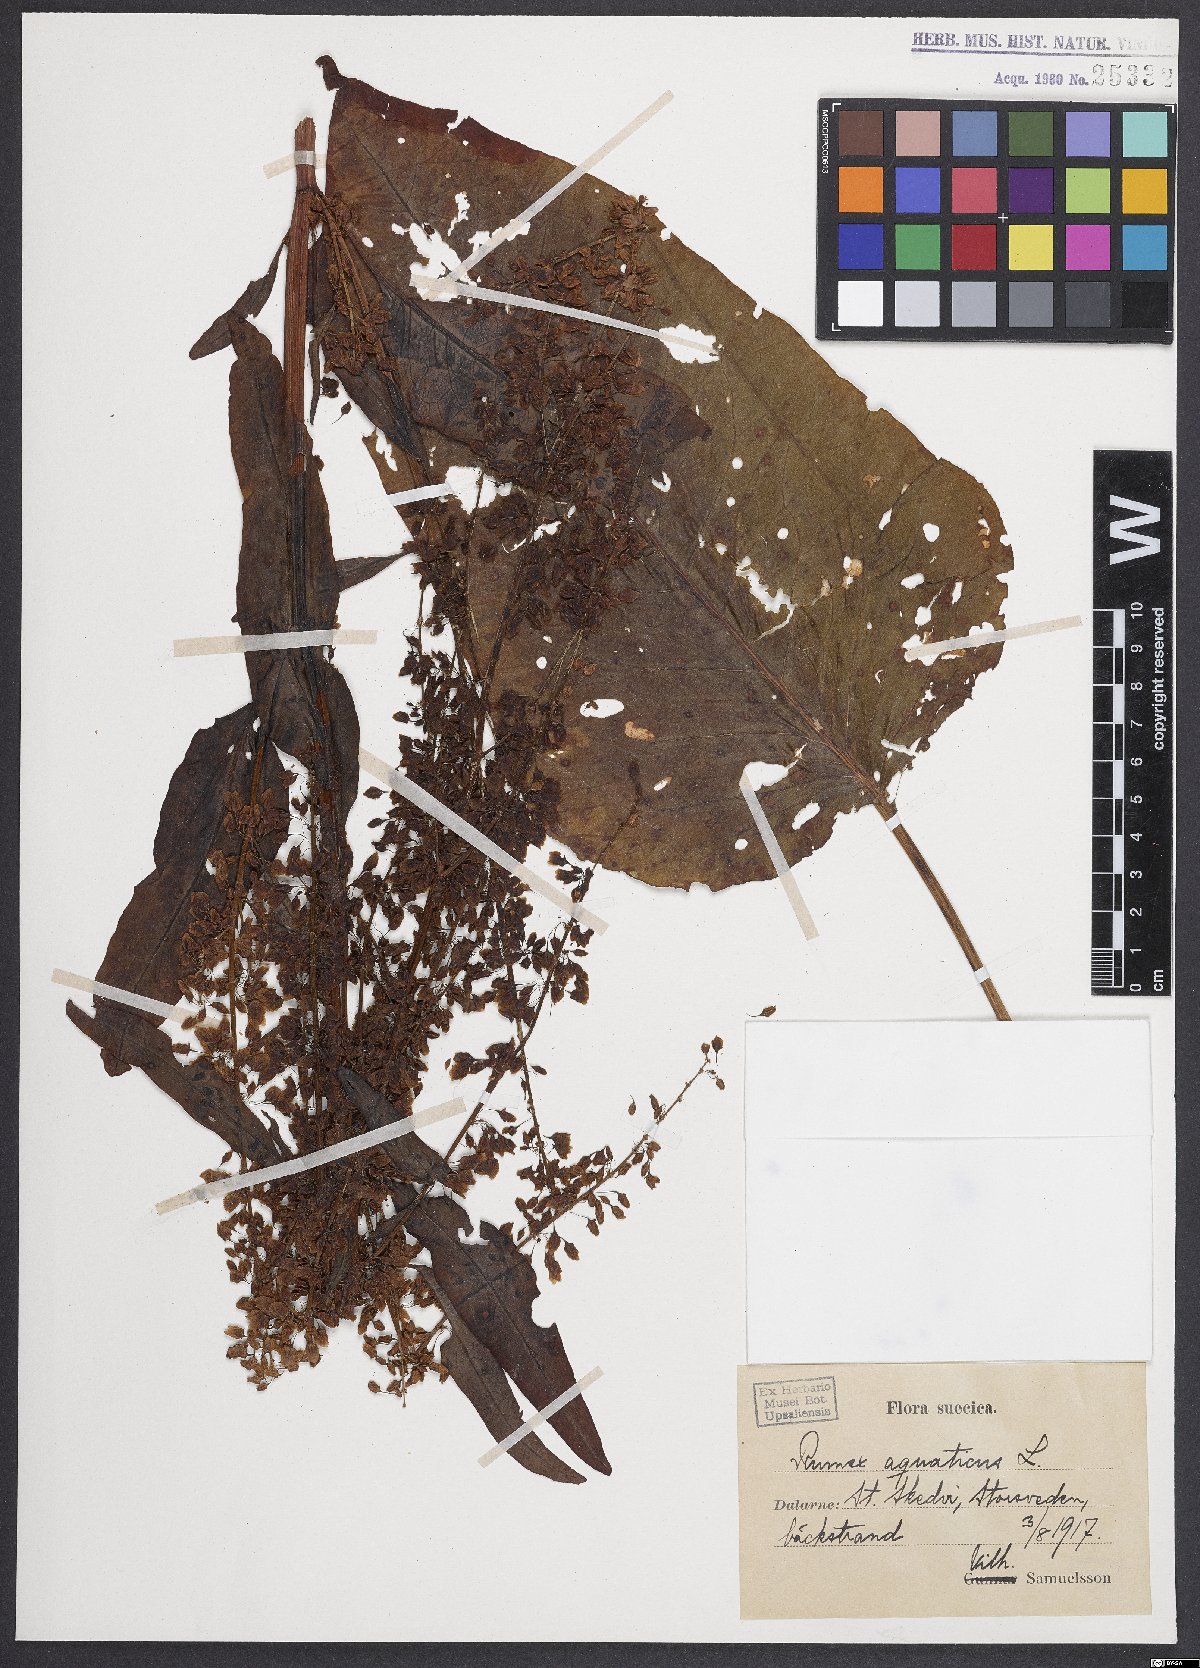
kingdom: Plantae
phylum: Tracheophyta
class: Magnoliopsida
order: Caryophyllales
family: Polygonaceae
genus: Rumex
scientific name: Rumex aquaticus
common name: Scottish dock
